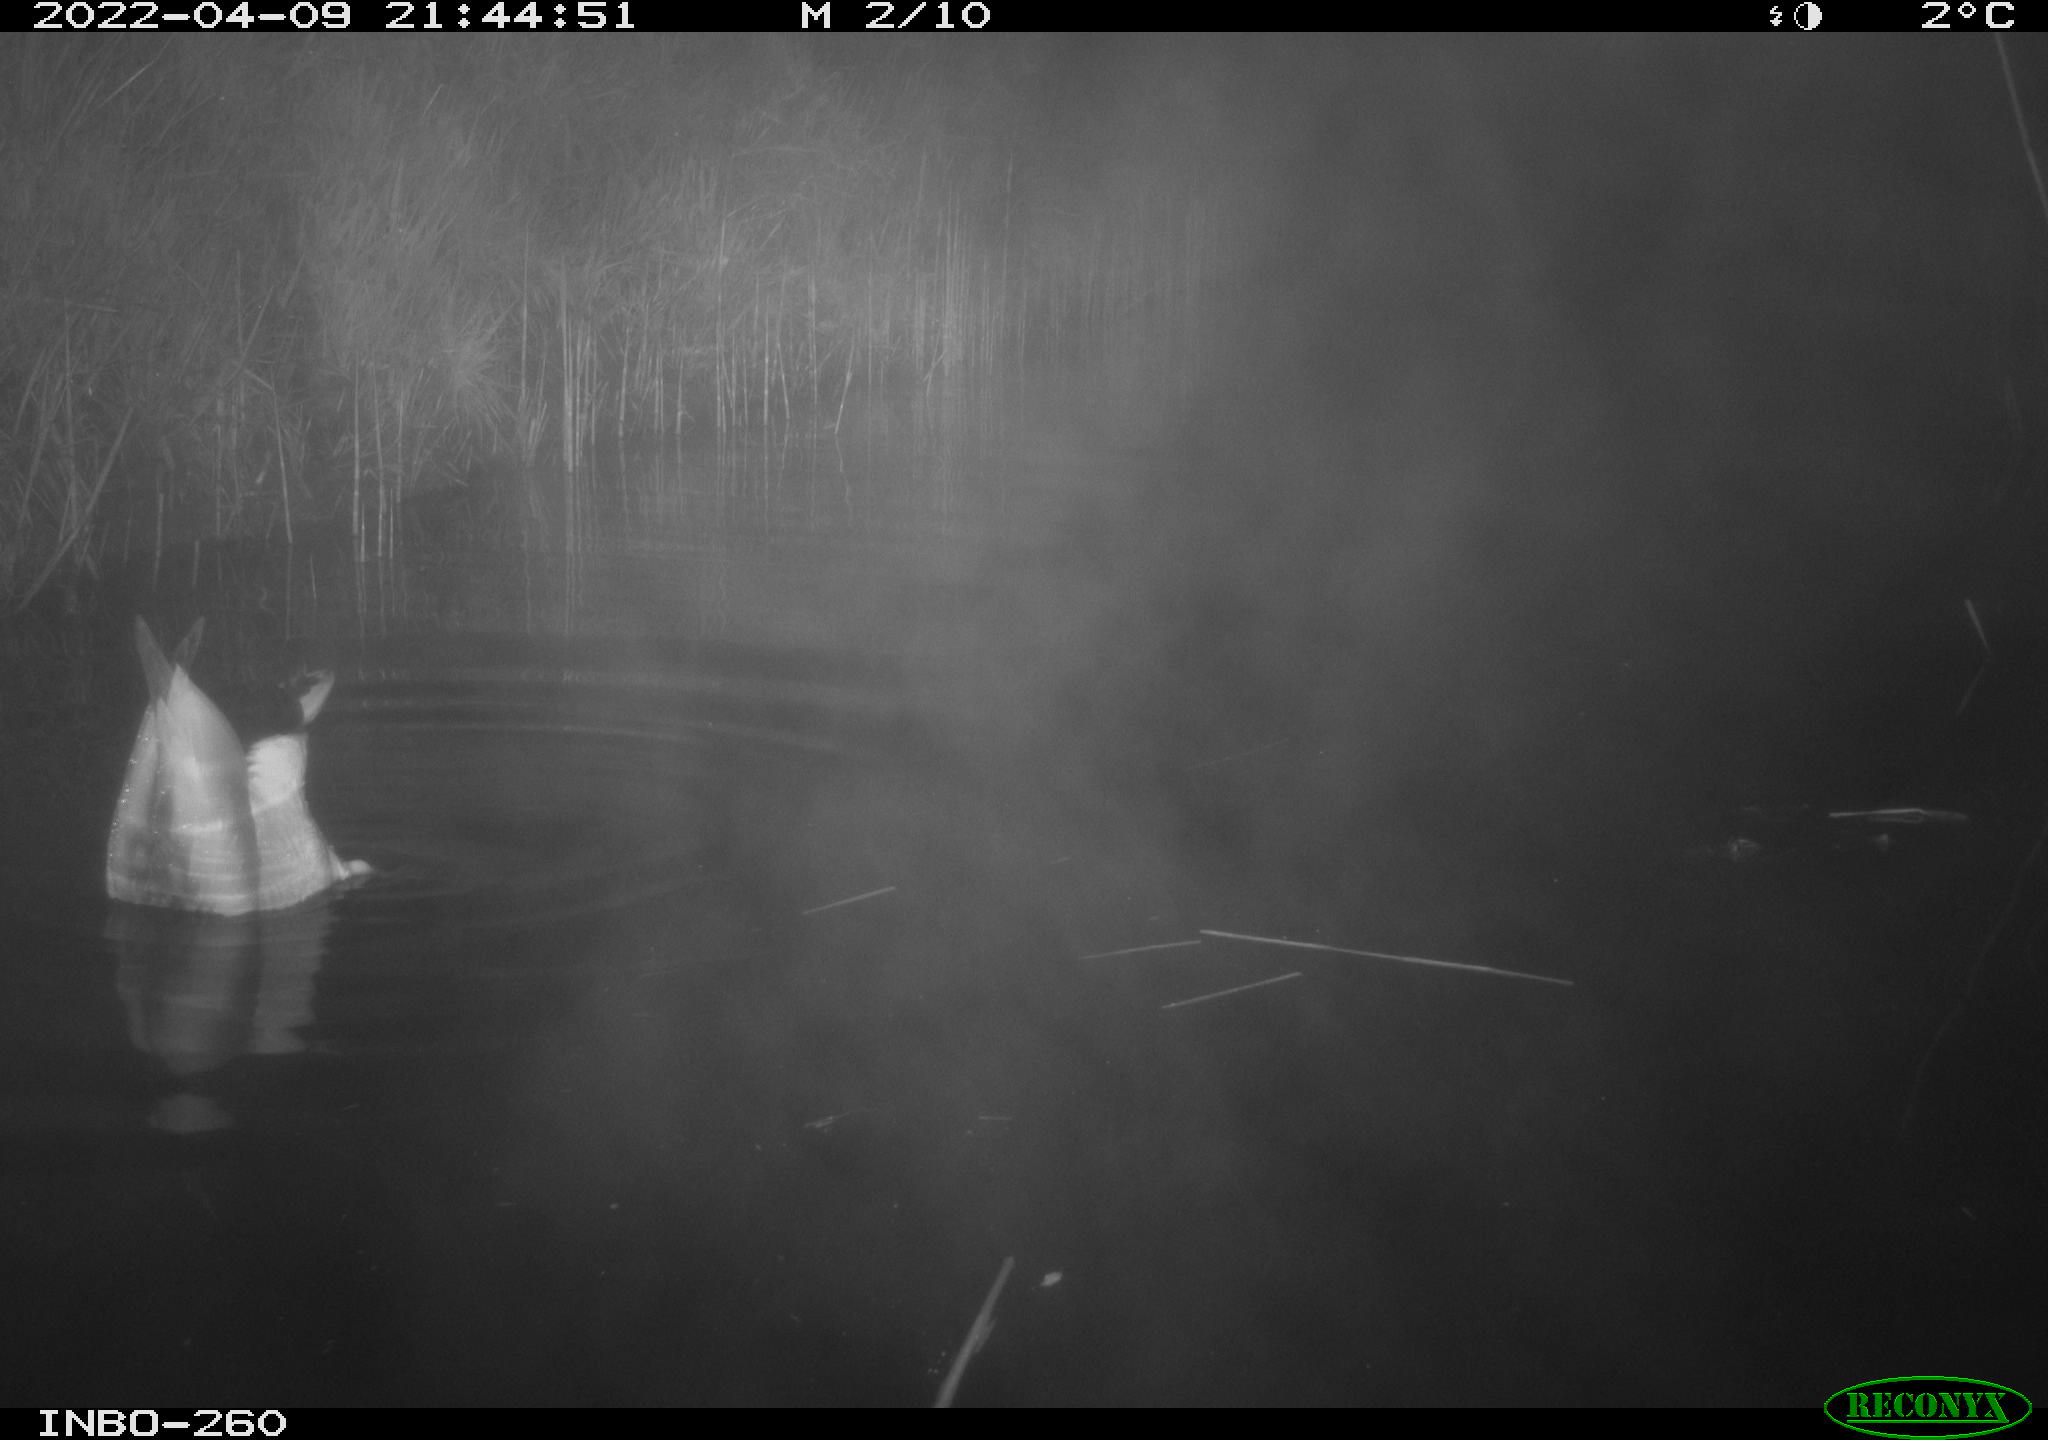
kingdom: Animalia
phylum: Chordata
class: Aves
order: Anseriformes
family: Anatidae
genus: Anas
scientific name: Anas platyrhynchos
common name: Mallard
